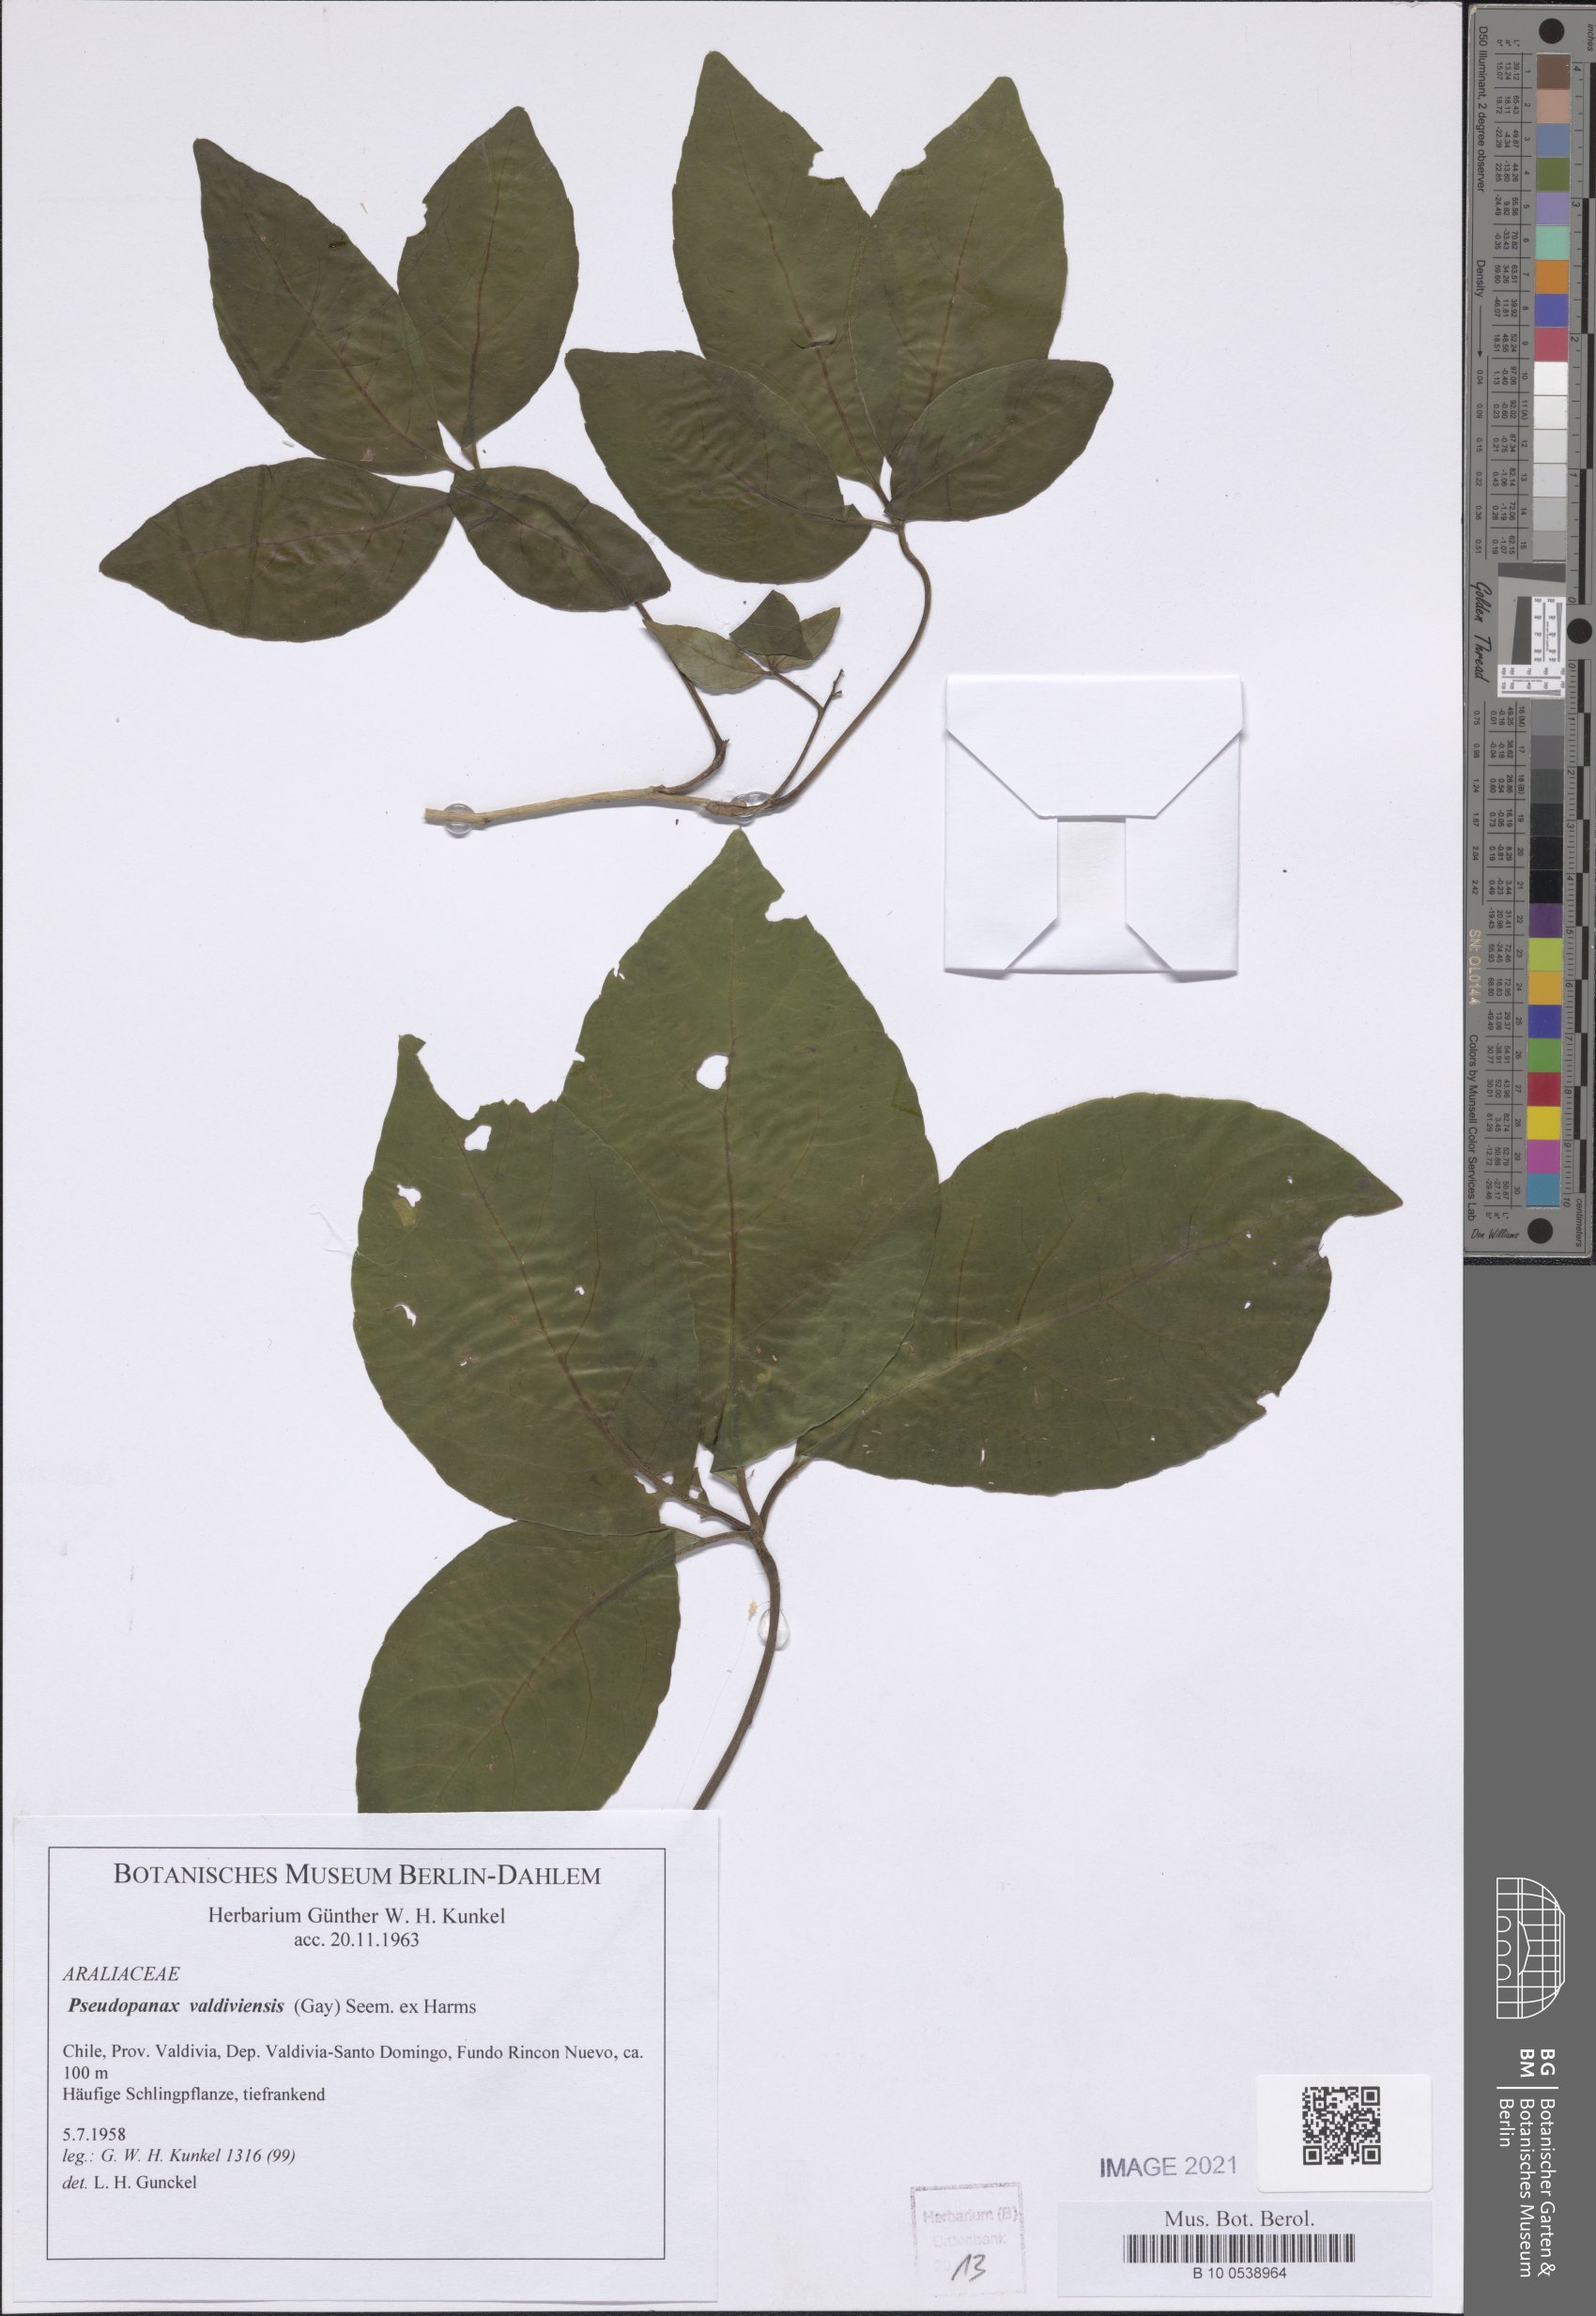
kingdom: Plantae
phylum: Tracheophyta
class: Magnoliopsida
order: Apiales
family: Araliaceae
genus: Raukaua
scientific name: Raukaua valdiviensis
